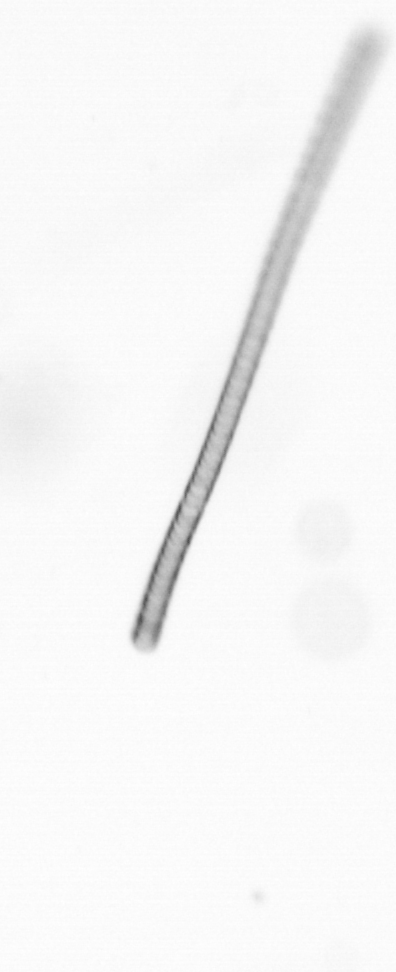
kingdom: Chromista
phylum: Ochrophyta
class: Bacillariophyceae
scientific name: Bacillariophyceae
